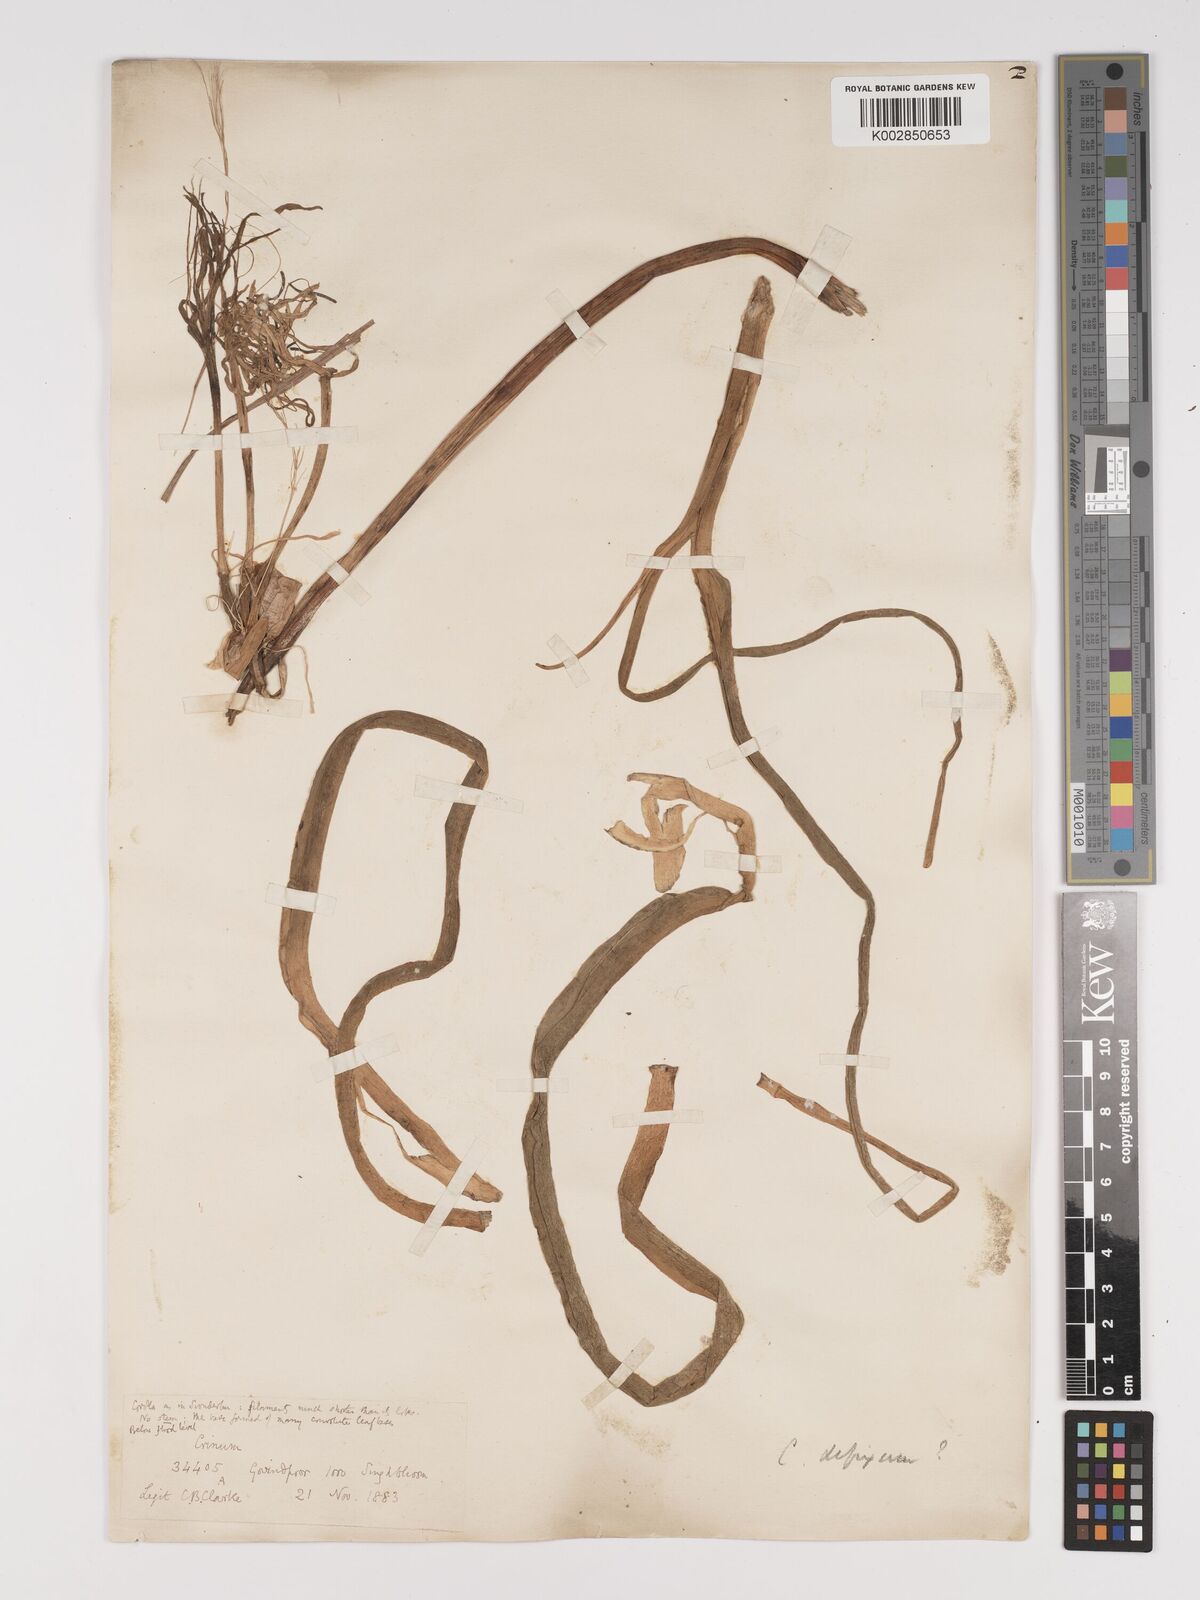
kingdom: Plantae
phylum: Tracheophyta
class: Liliopsida
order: Asparagales
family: Amaryllidaceae
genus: Crinum
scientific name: Crinum
